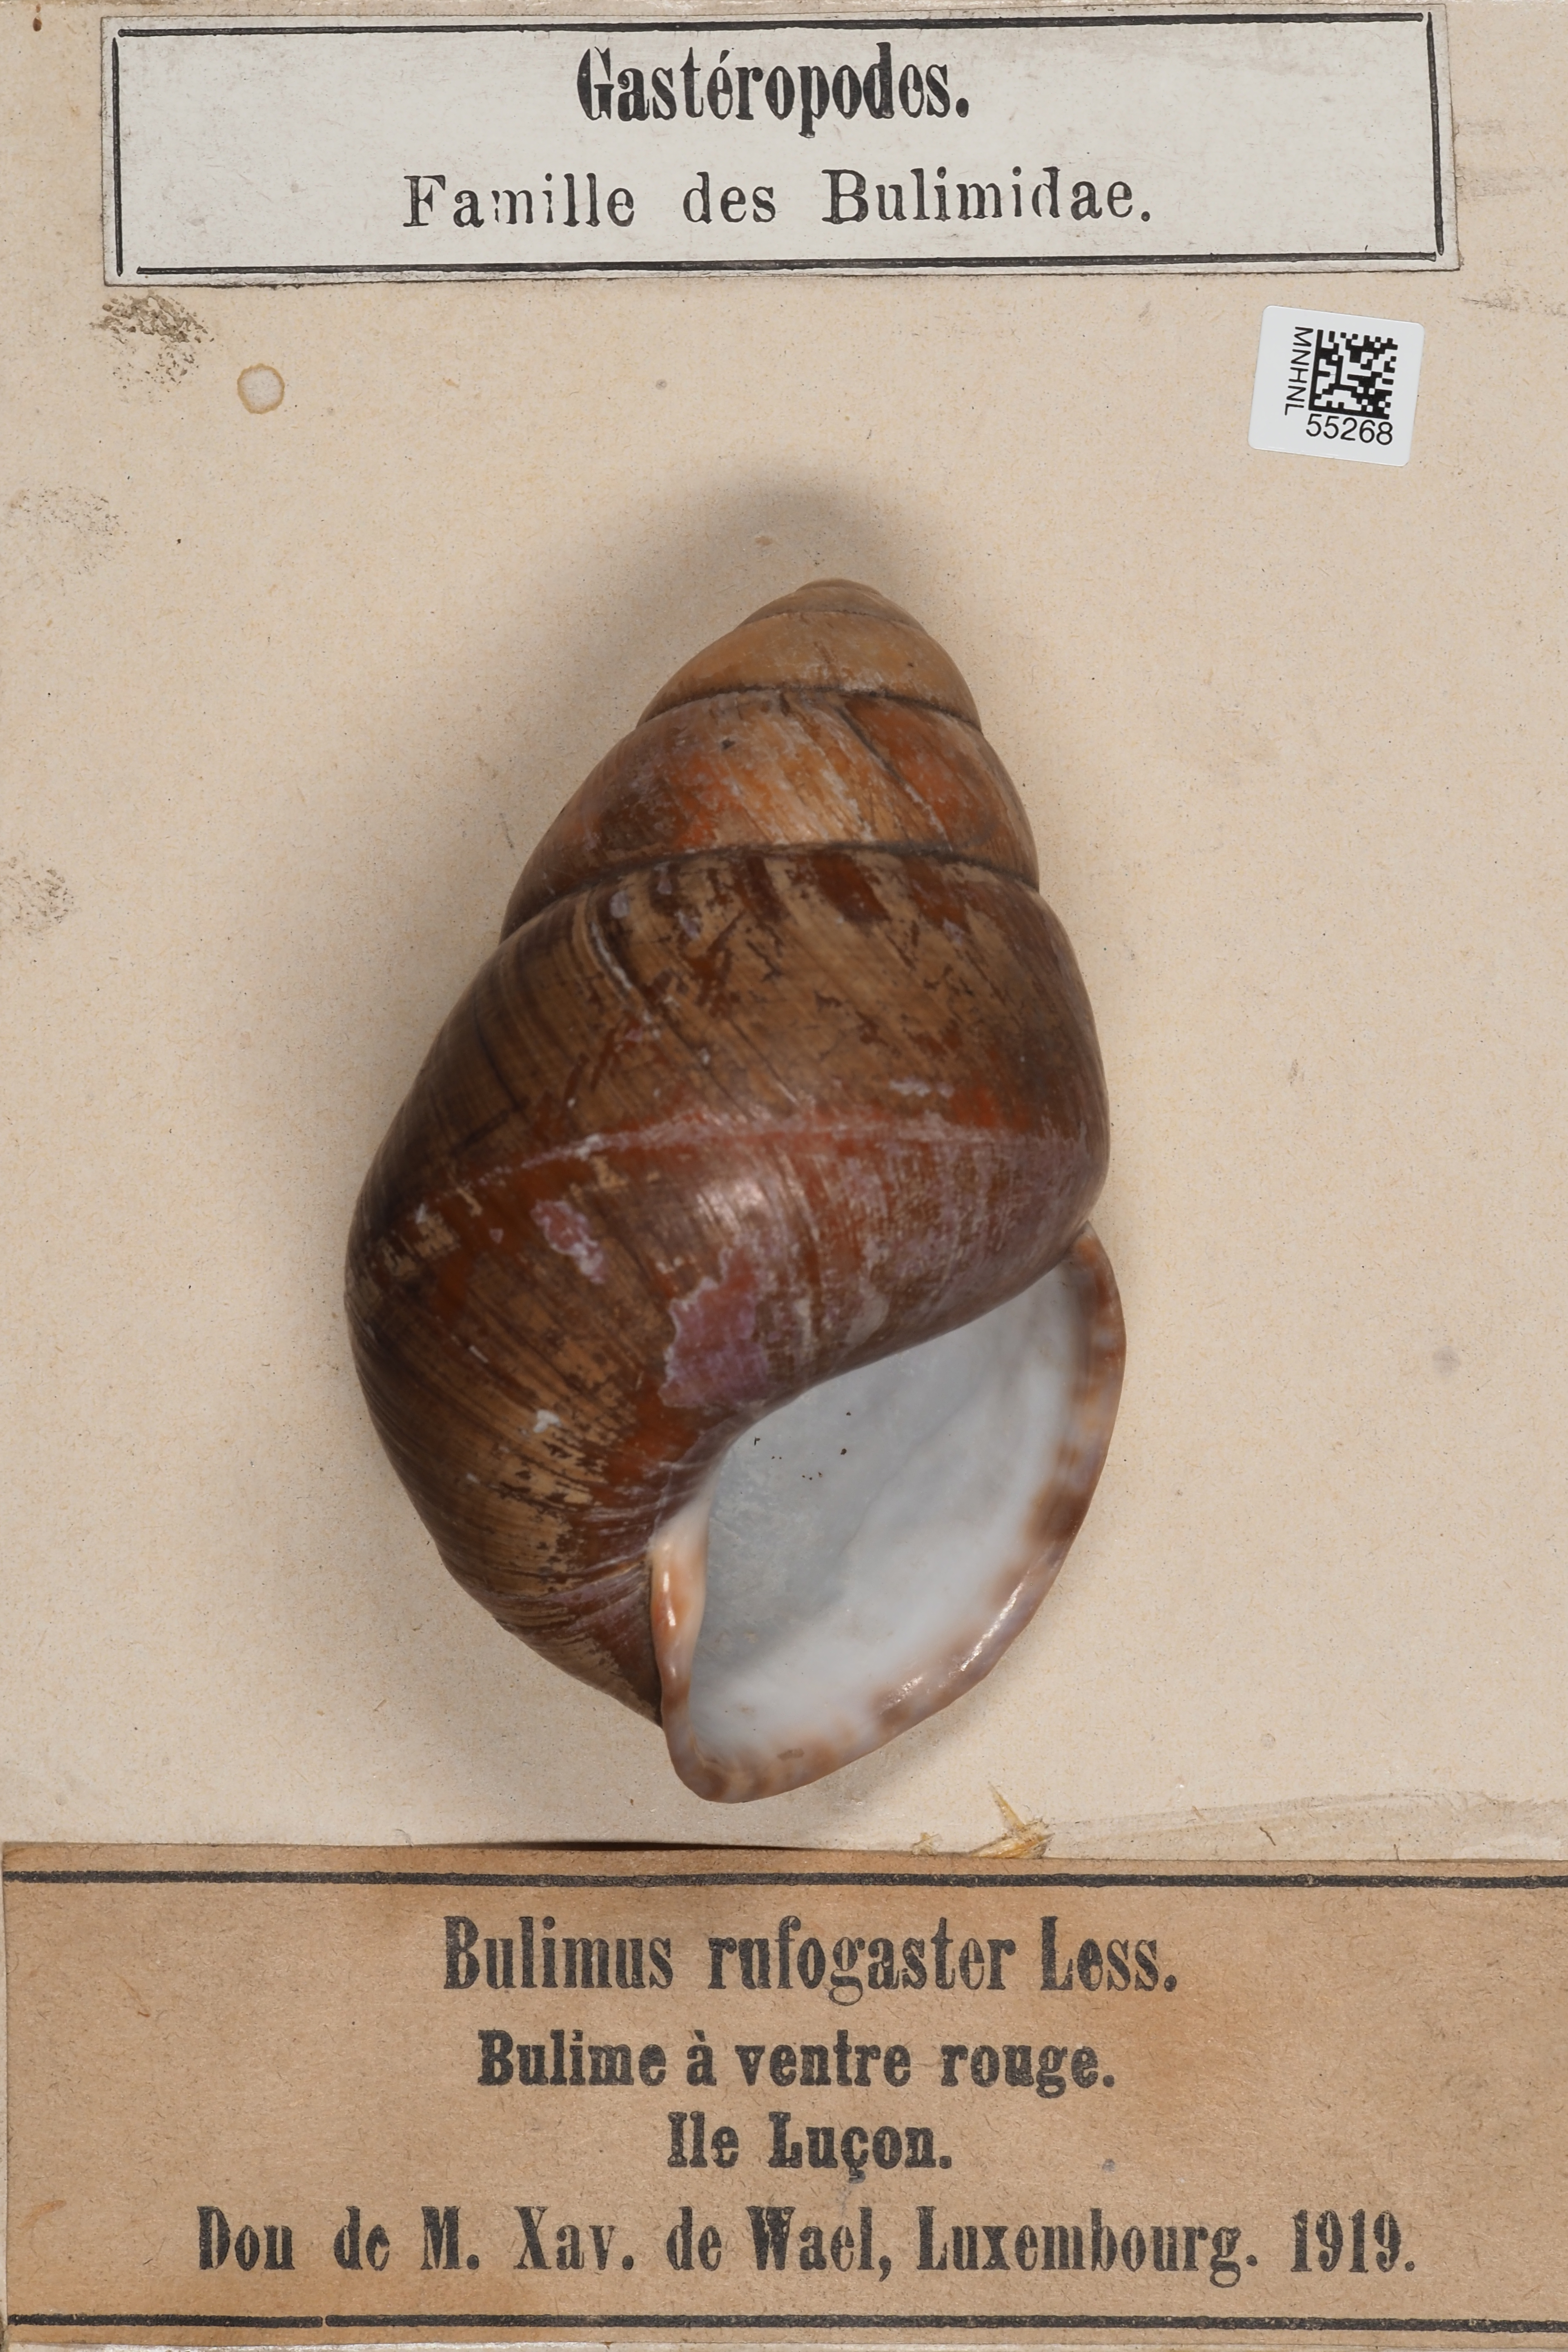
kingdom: Animalia
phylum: Mollusca
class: Gastropoda
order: Stylommatophora
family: Bulimulidae
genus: Bulimus
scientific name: Bulimus
